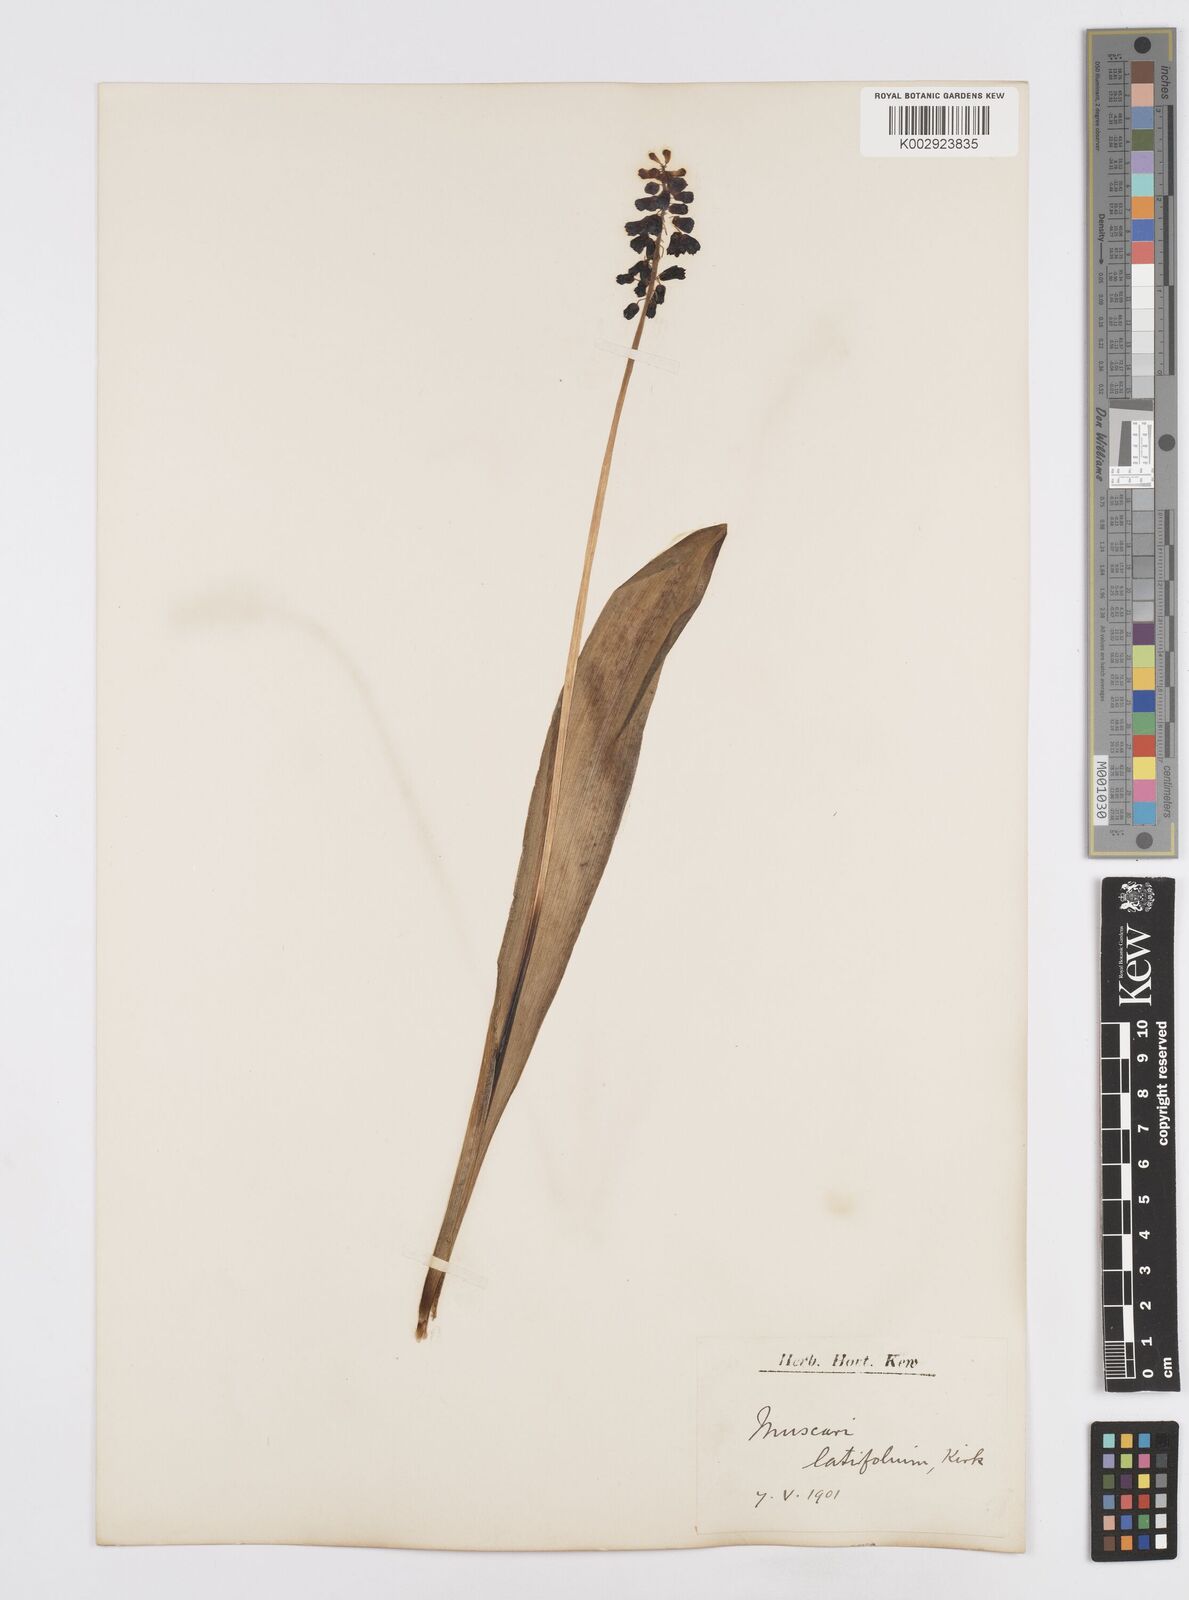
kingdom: Plantae
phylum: Tracheophyta
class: Liliopsida
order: Asparagales
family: Asparagaceae
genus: Muscari
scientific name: Muscari latifolium
